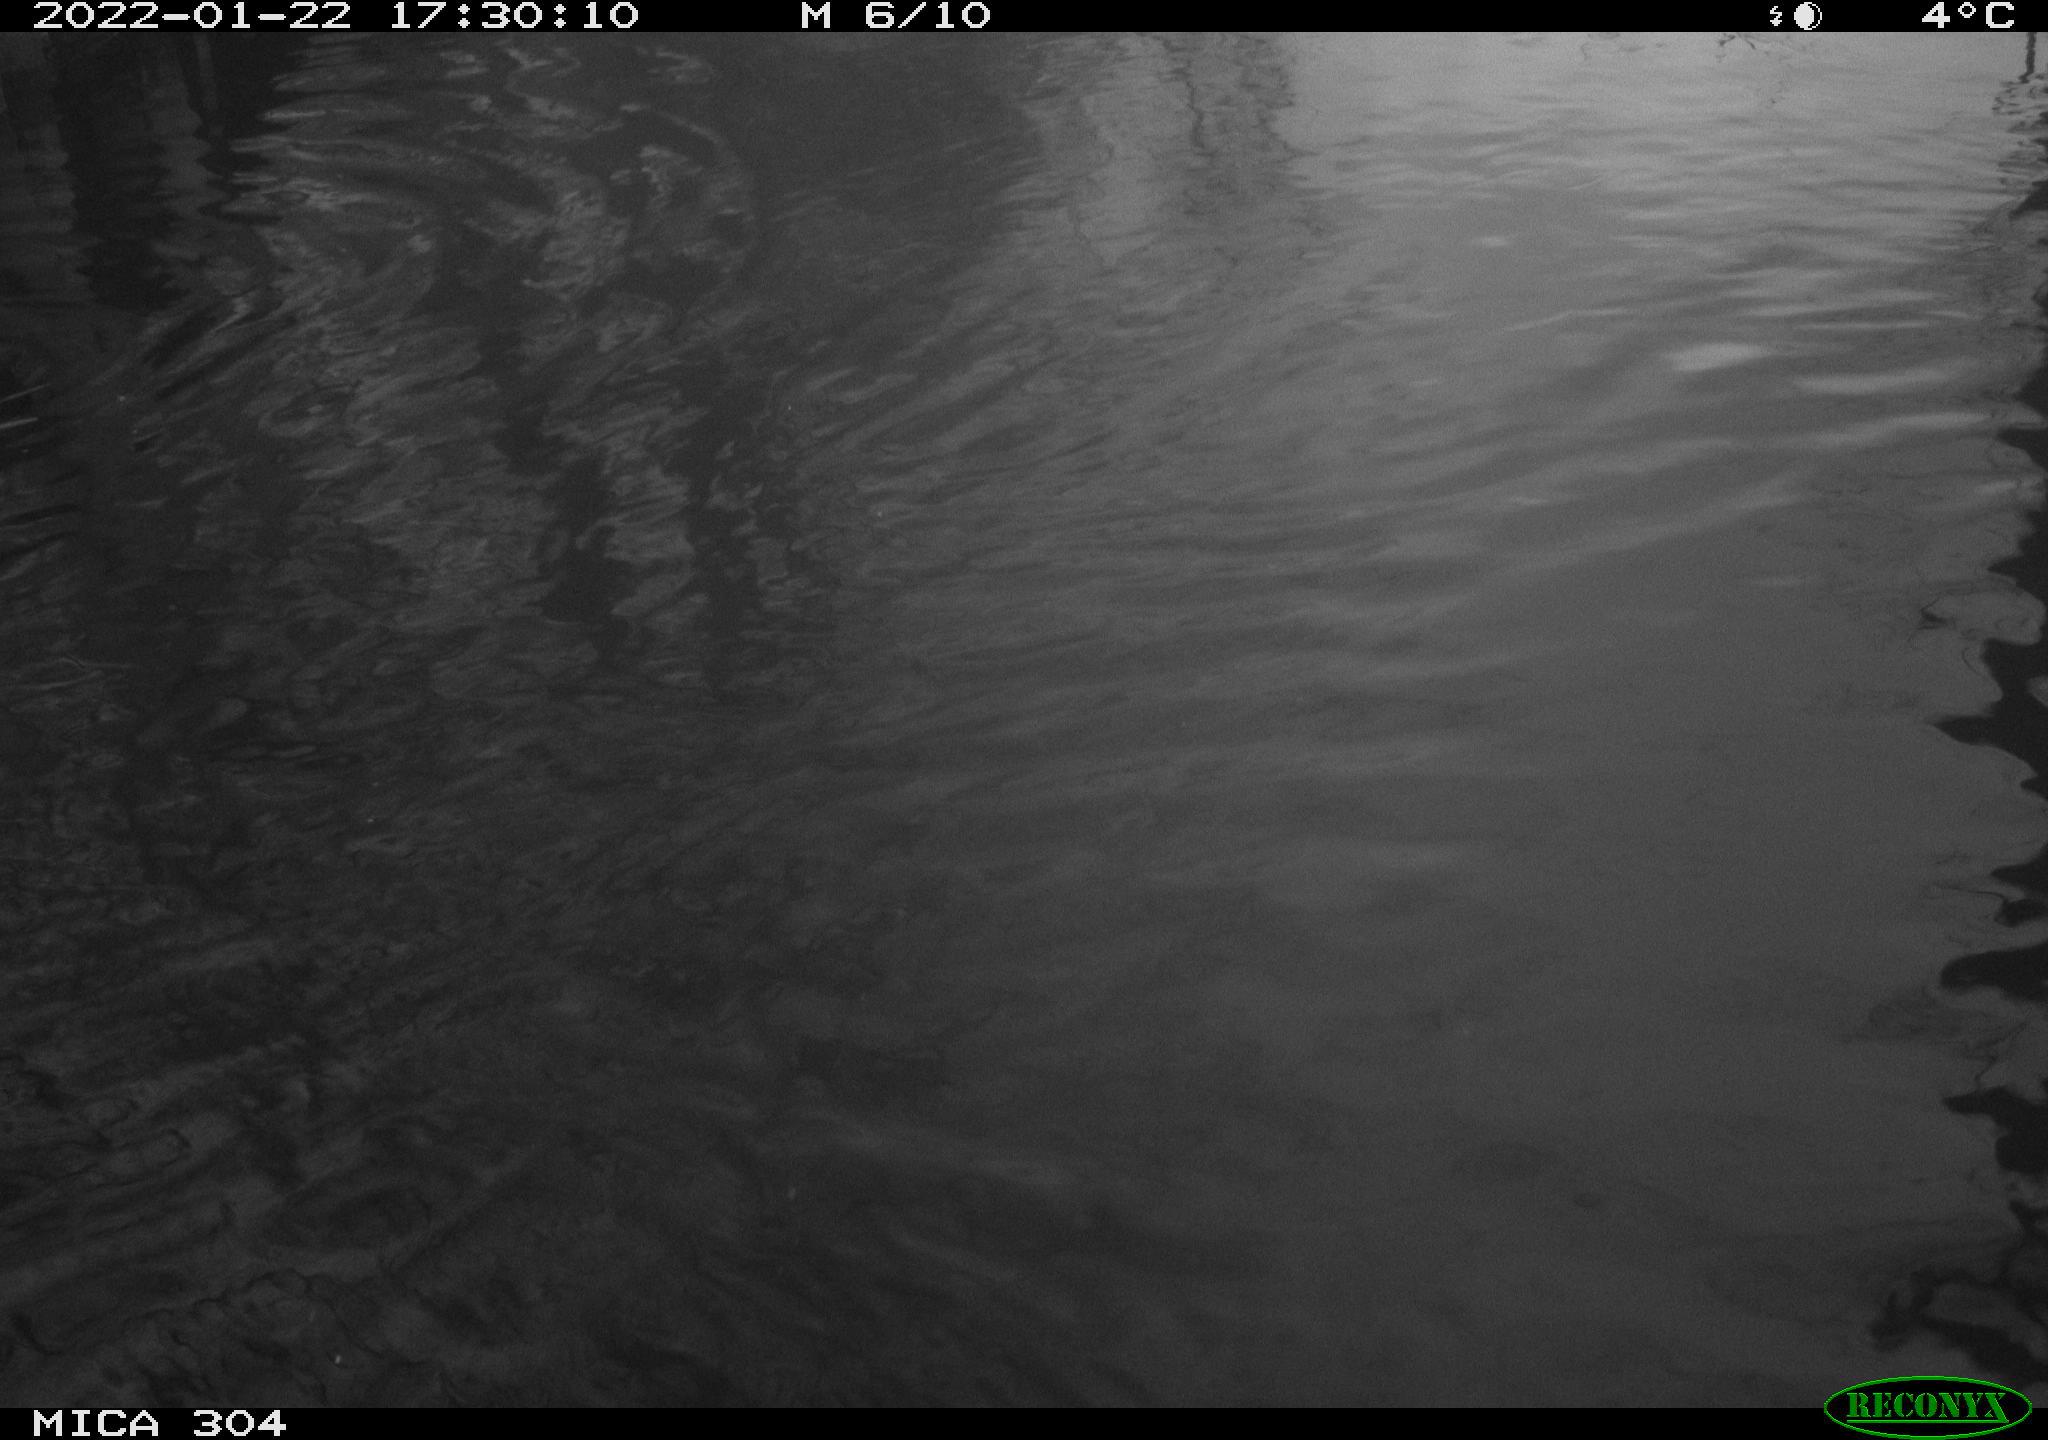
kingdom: Animalia
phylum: Chordata
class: Aves
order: Gruiformes
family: Rallidae
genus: Gallinula
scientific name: Gallinula chloropus
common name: Common moorhen
